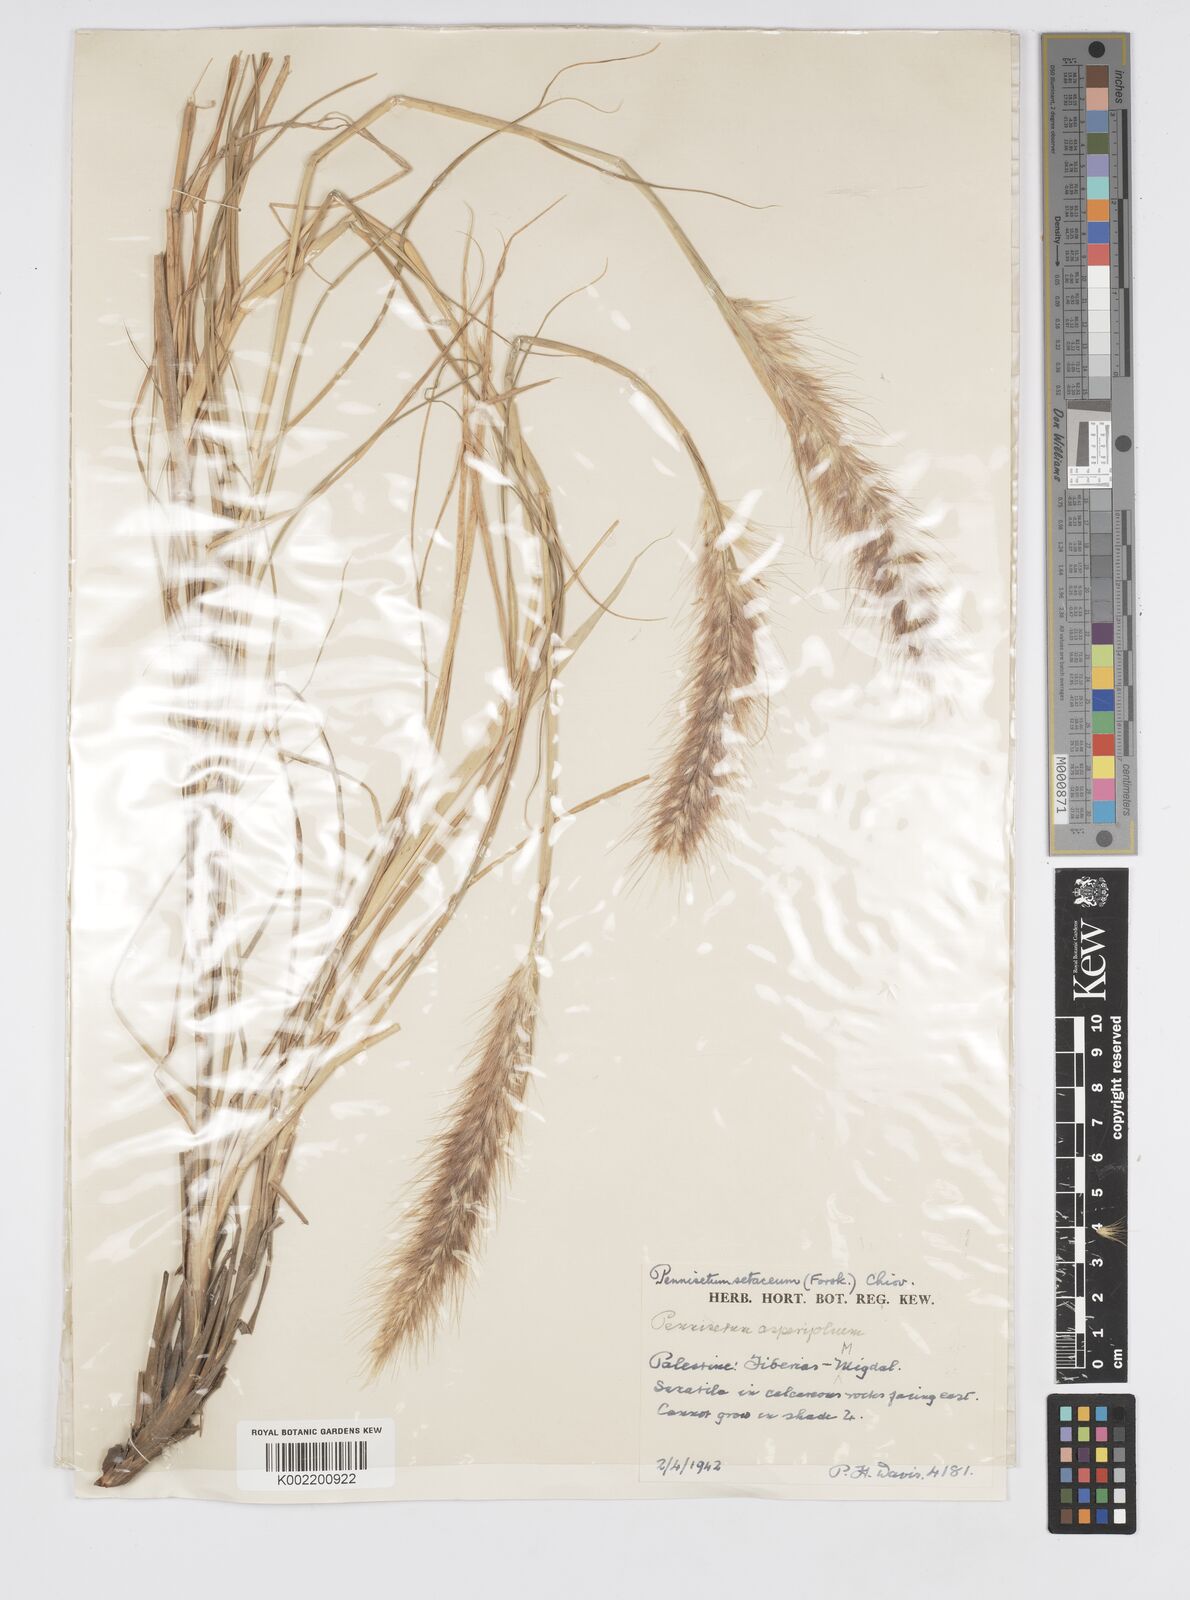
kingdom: Plantae
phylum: Tracheophyta
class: Liliopsida
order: Poales
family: Poaceae
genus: Cenchrus
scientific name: Cenchrus setaceus
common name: Crimson fountaingrass
